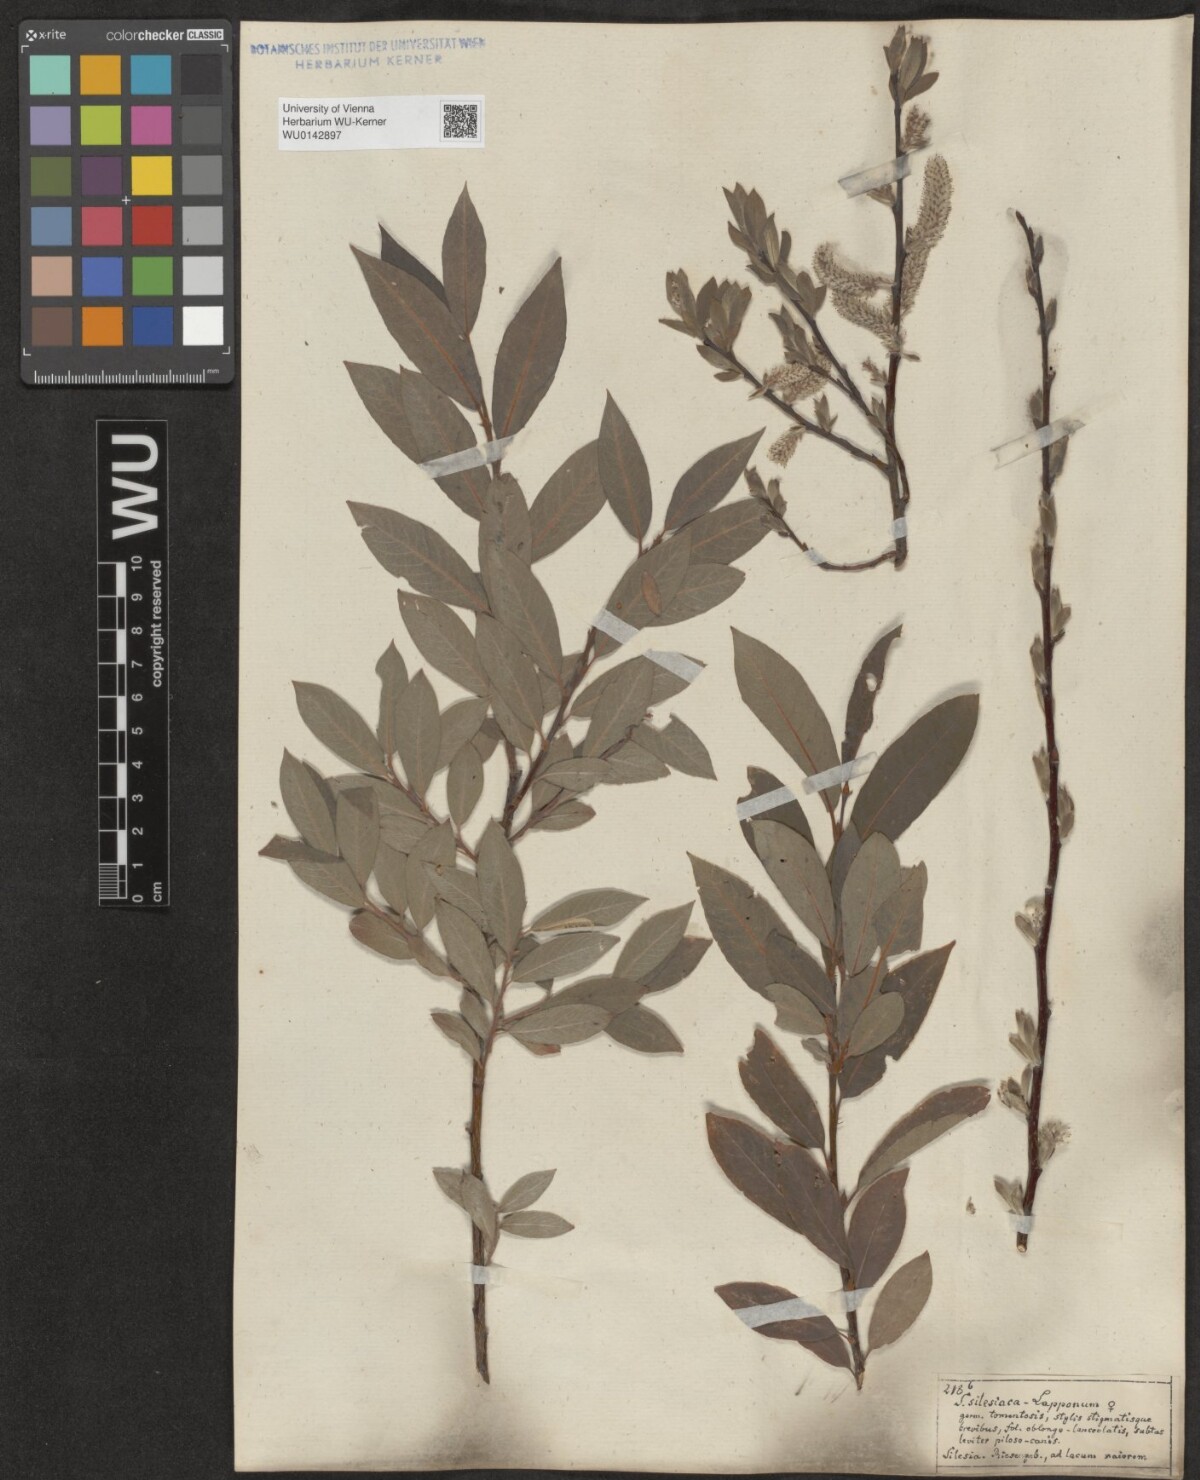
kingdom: Plantae
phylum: Tracheophyta
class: Magnoliopsida
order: Malpighiales
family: Salicaceae
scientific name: Salicaceae
